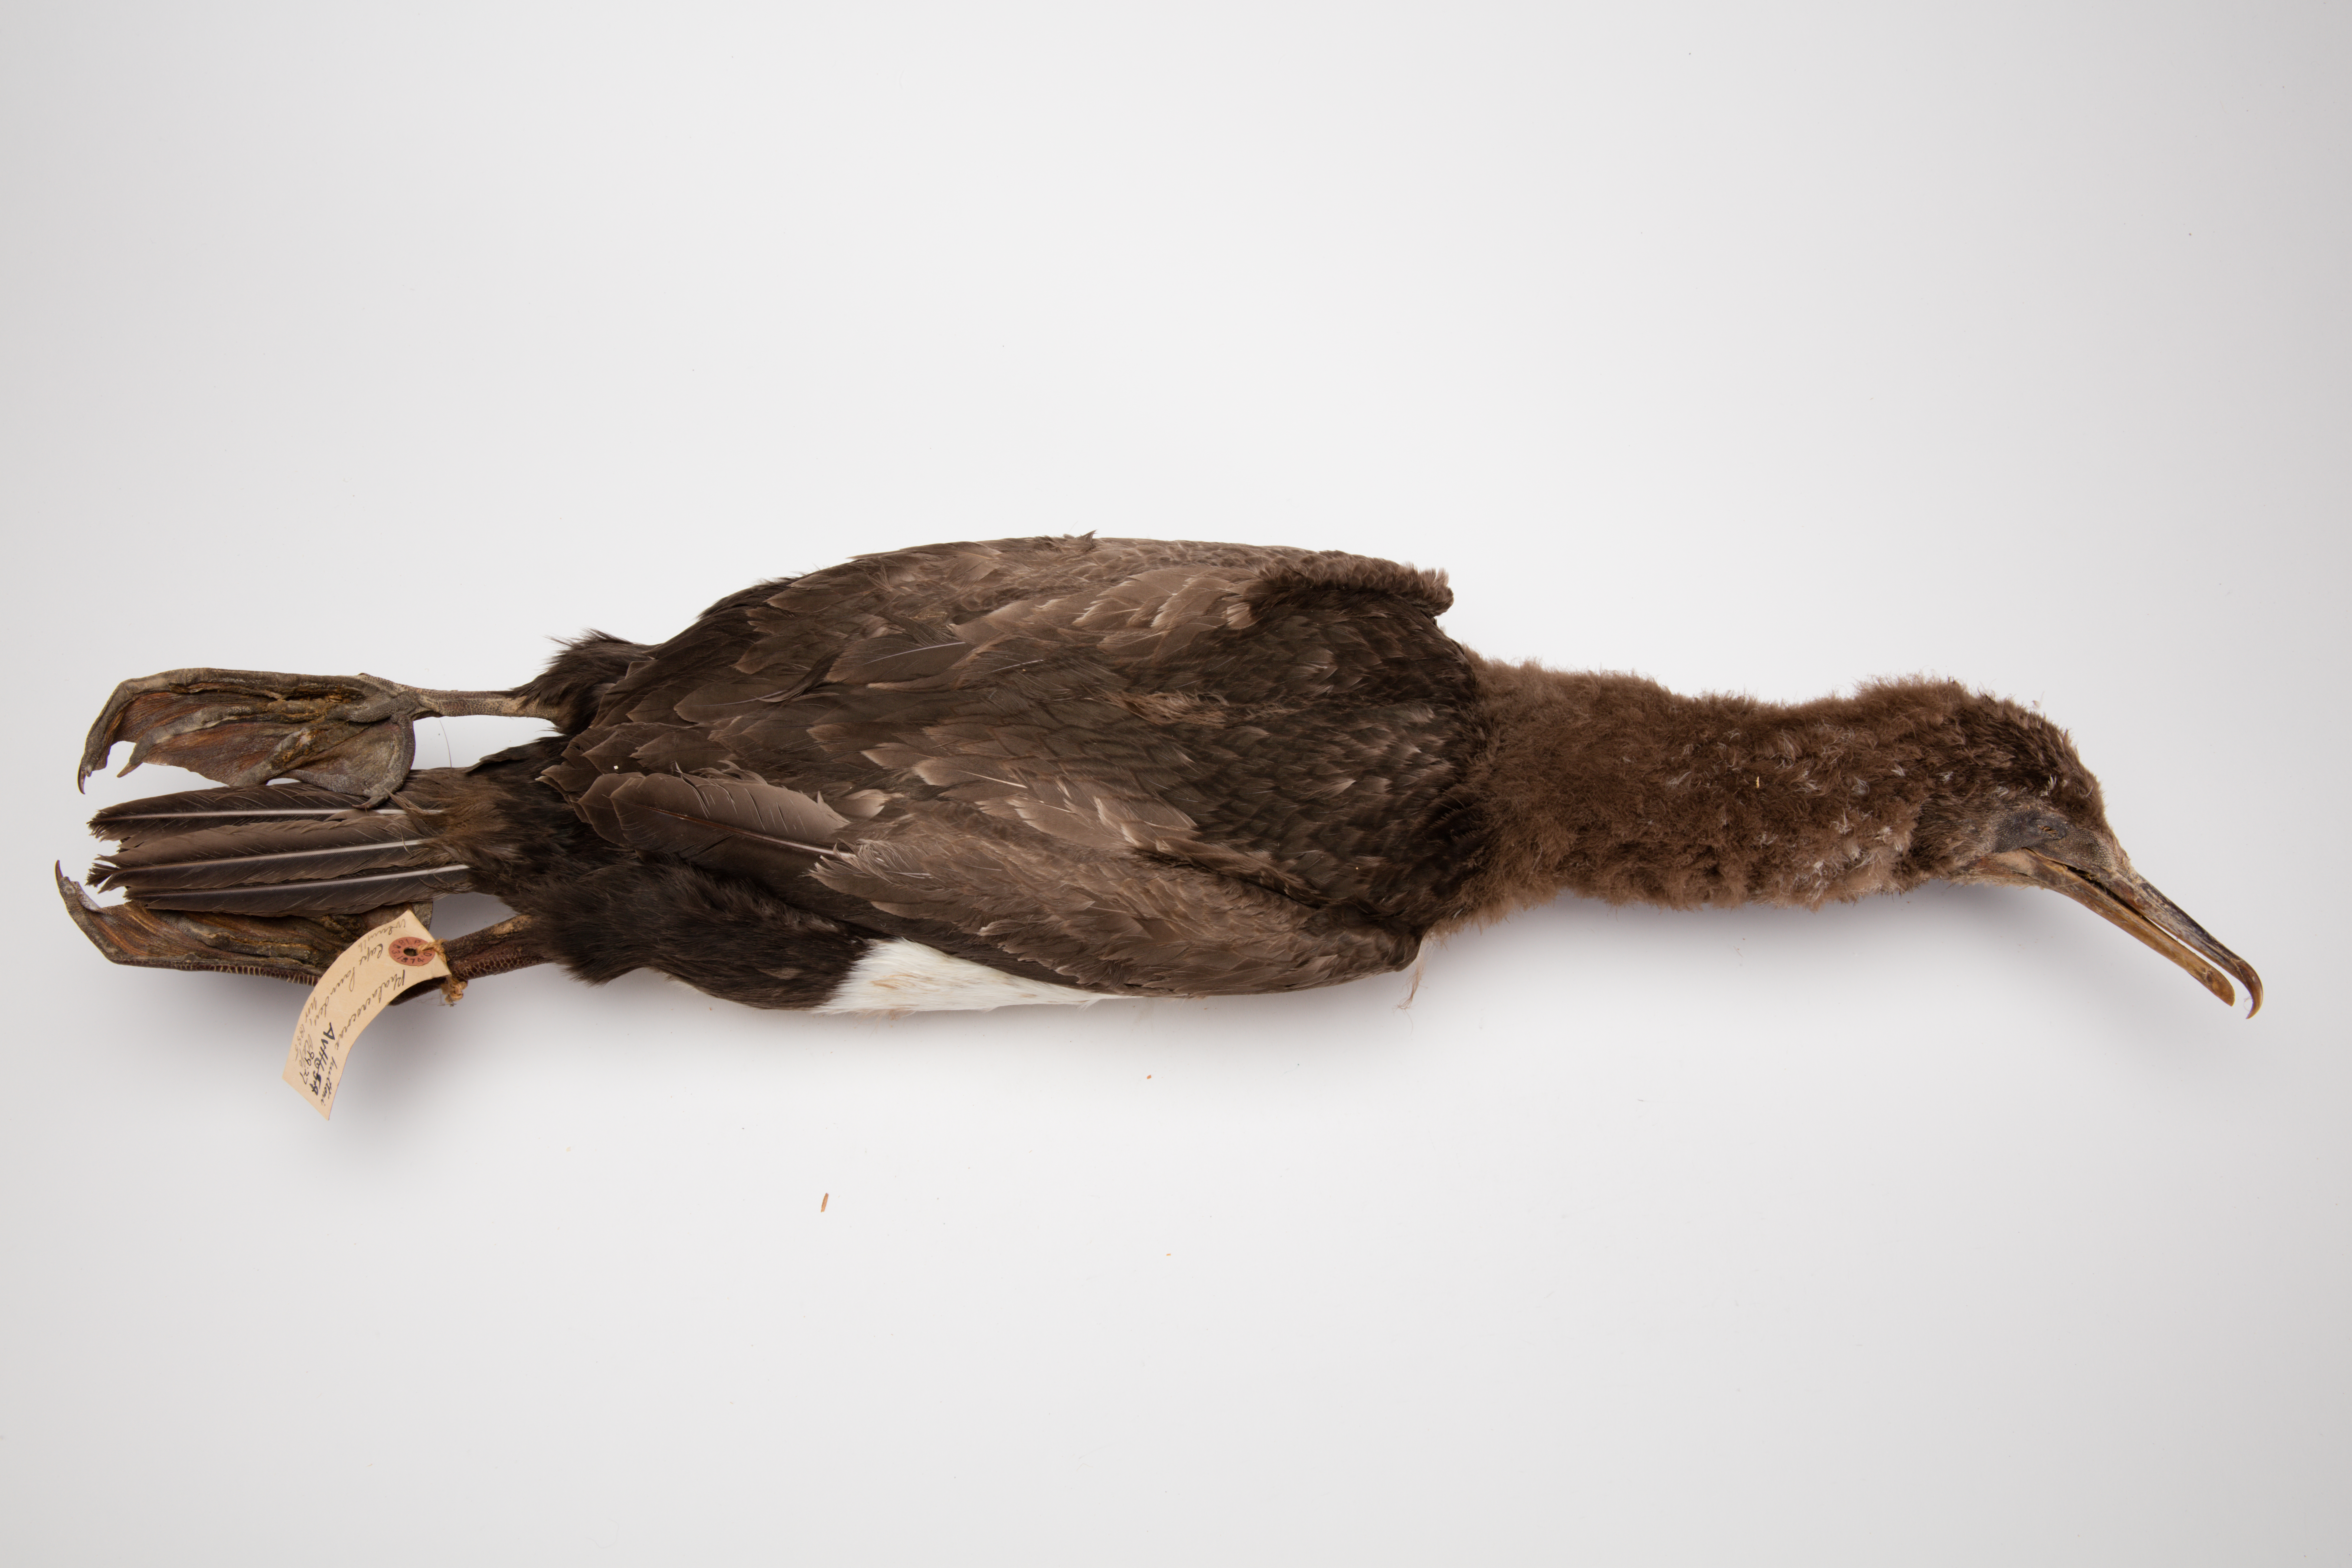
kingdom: Animalia
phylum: Chordata
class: Aves
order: Suliformes
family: Phalacrocoracidae
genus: Leucocarbo
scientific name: Leucocarbo chalconotus
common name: Stewart shag
